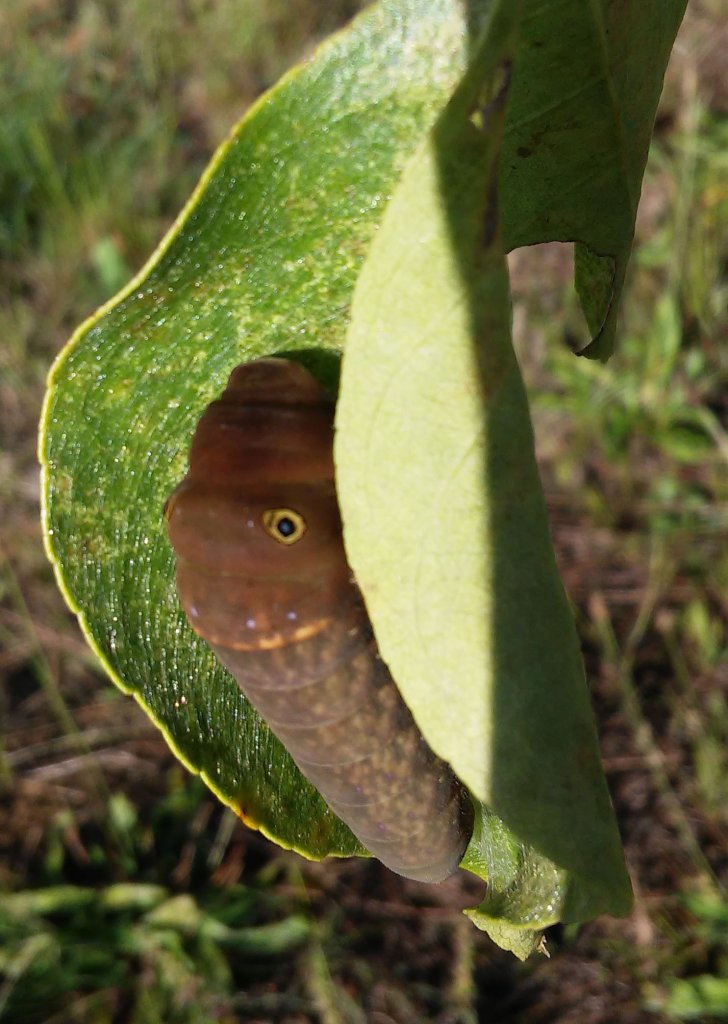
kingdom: Animalia
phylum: Arthropoda
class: Insecta
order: Lepidoptera
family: Papilionidae
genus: Pterourus
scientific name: Pterourus glaucus
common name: Eastern Tiger Swallowtail
